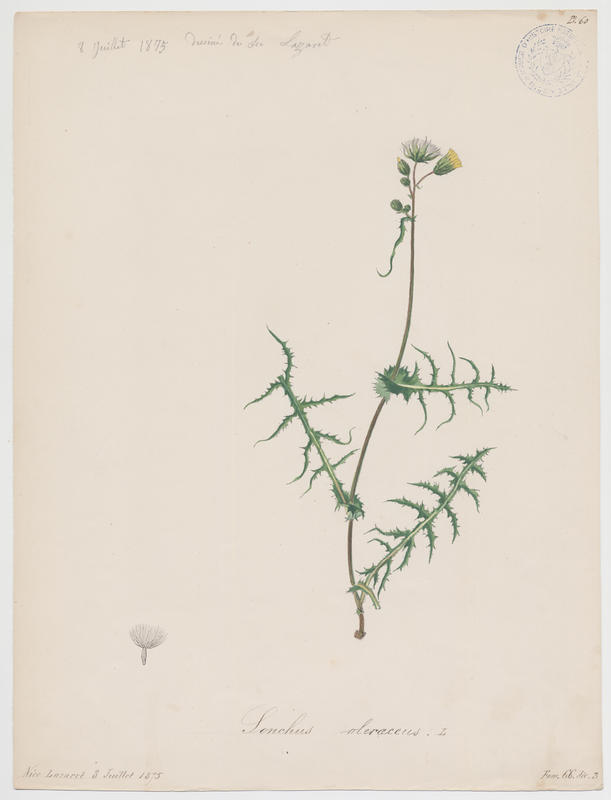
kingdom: Plantae
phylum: Tracheophyta
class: Magnoliopsida
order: Asterales
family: Asteraceae
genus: Sonchus
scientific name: Sonchus oleraceus
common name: Common sowthistle
